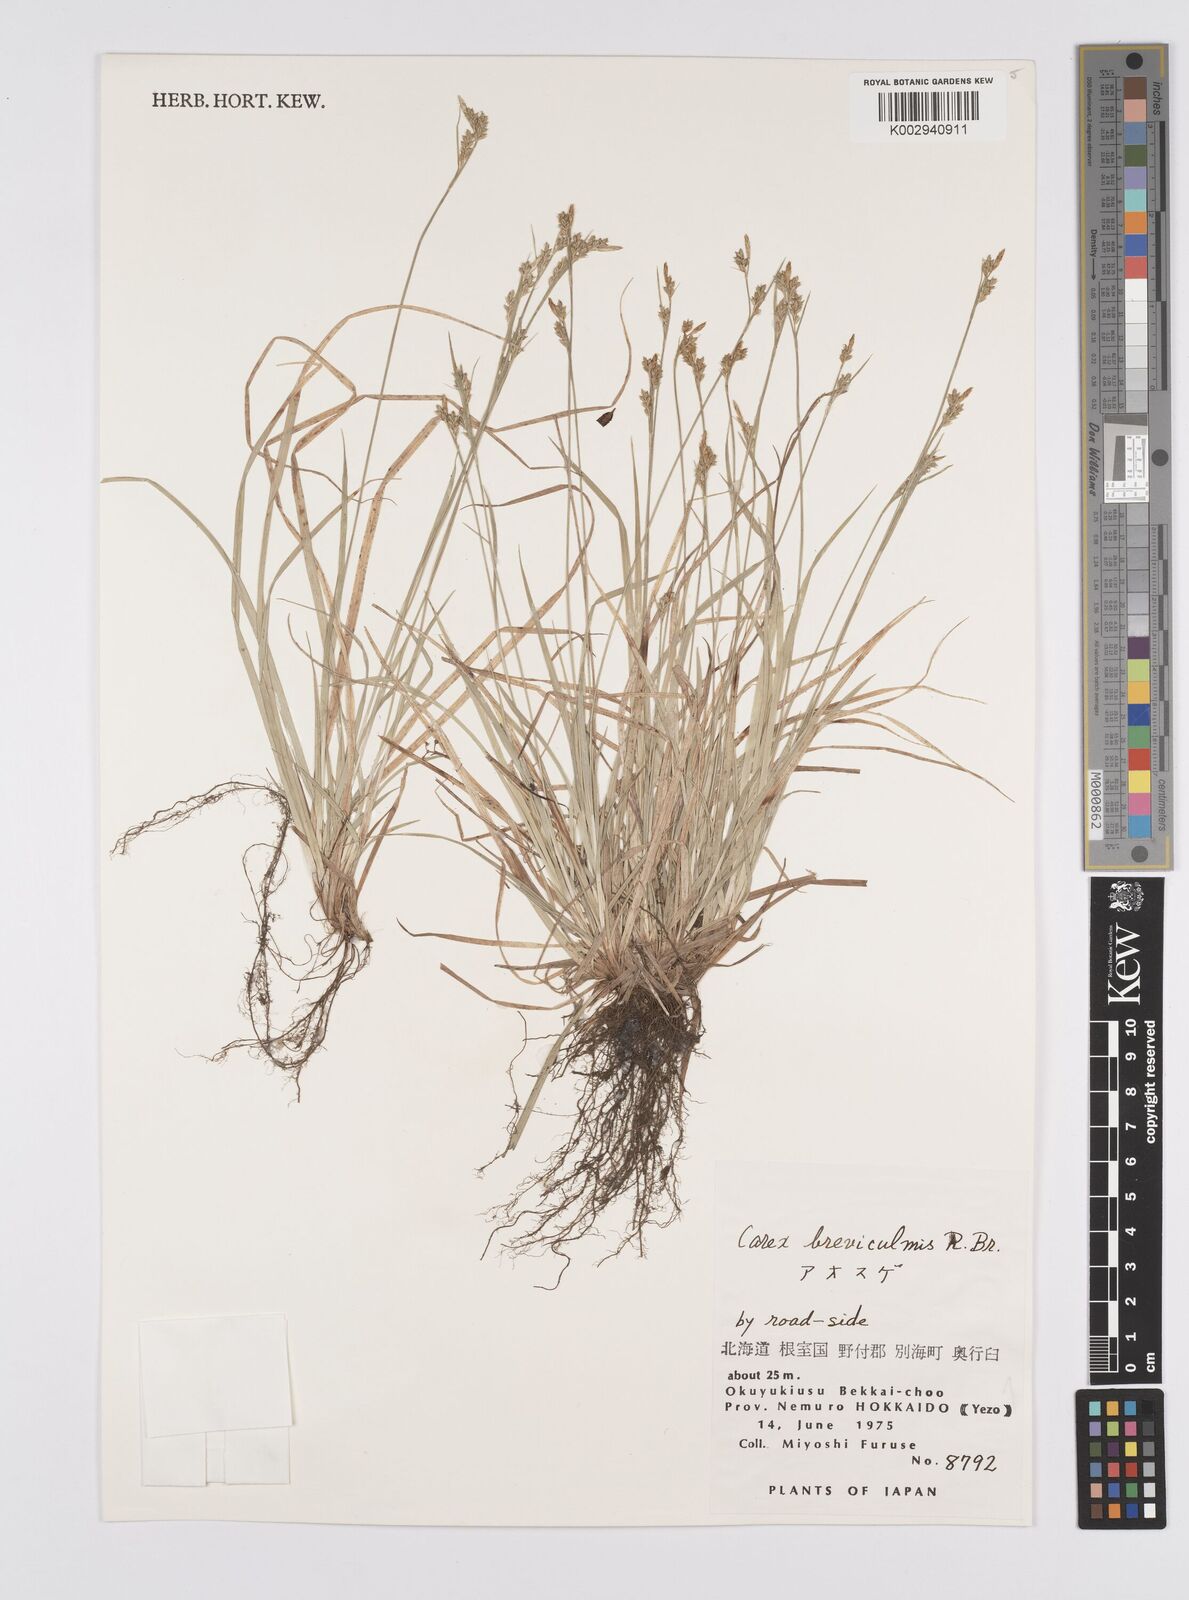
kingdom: Plantae
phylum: Tracheophyta
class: Liliopsida
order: Poales
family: Cyperaceae
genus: Carex
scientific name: Carex breviculmis
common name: Asian shortstem sedge
